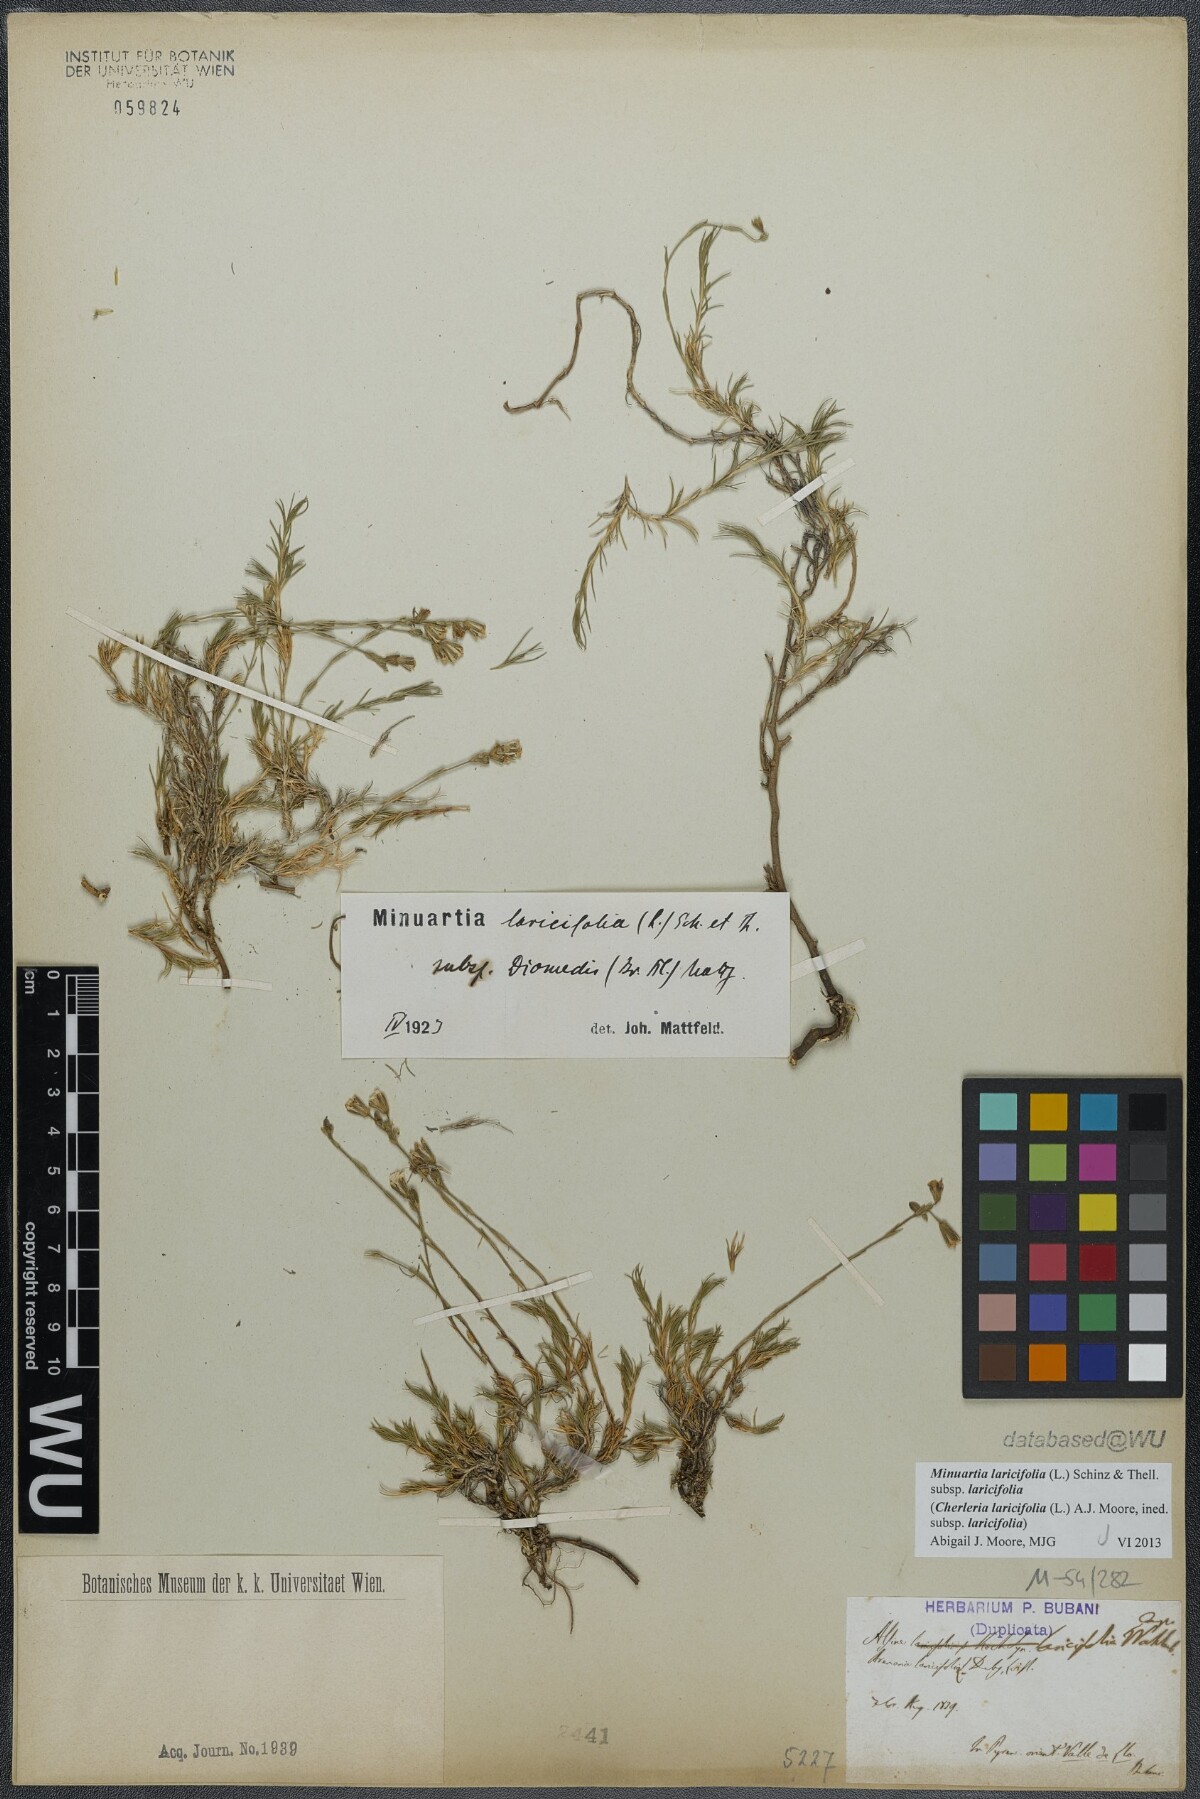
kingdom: Plantae
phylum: Tracheophyta
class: Magnoliopsida
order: Caryophyllales
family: Caryophyllaceae
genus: Cherleria
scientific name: Cherleria laricifolia
